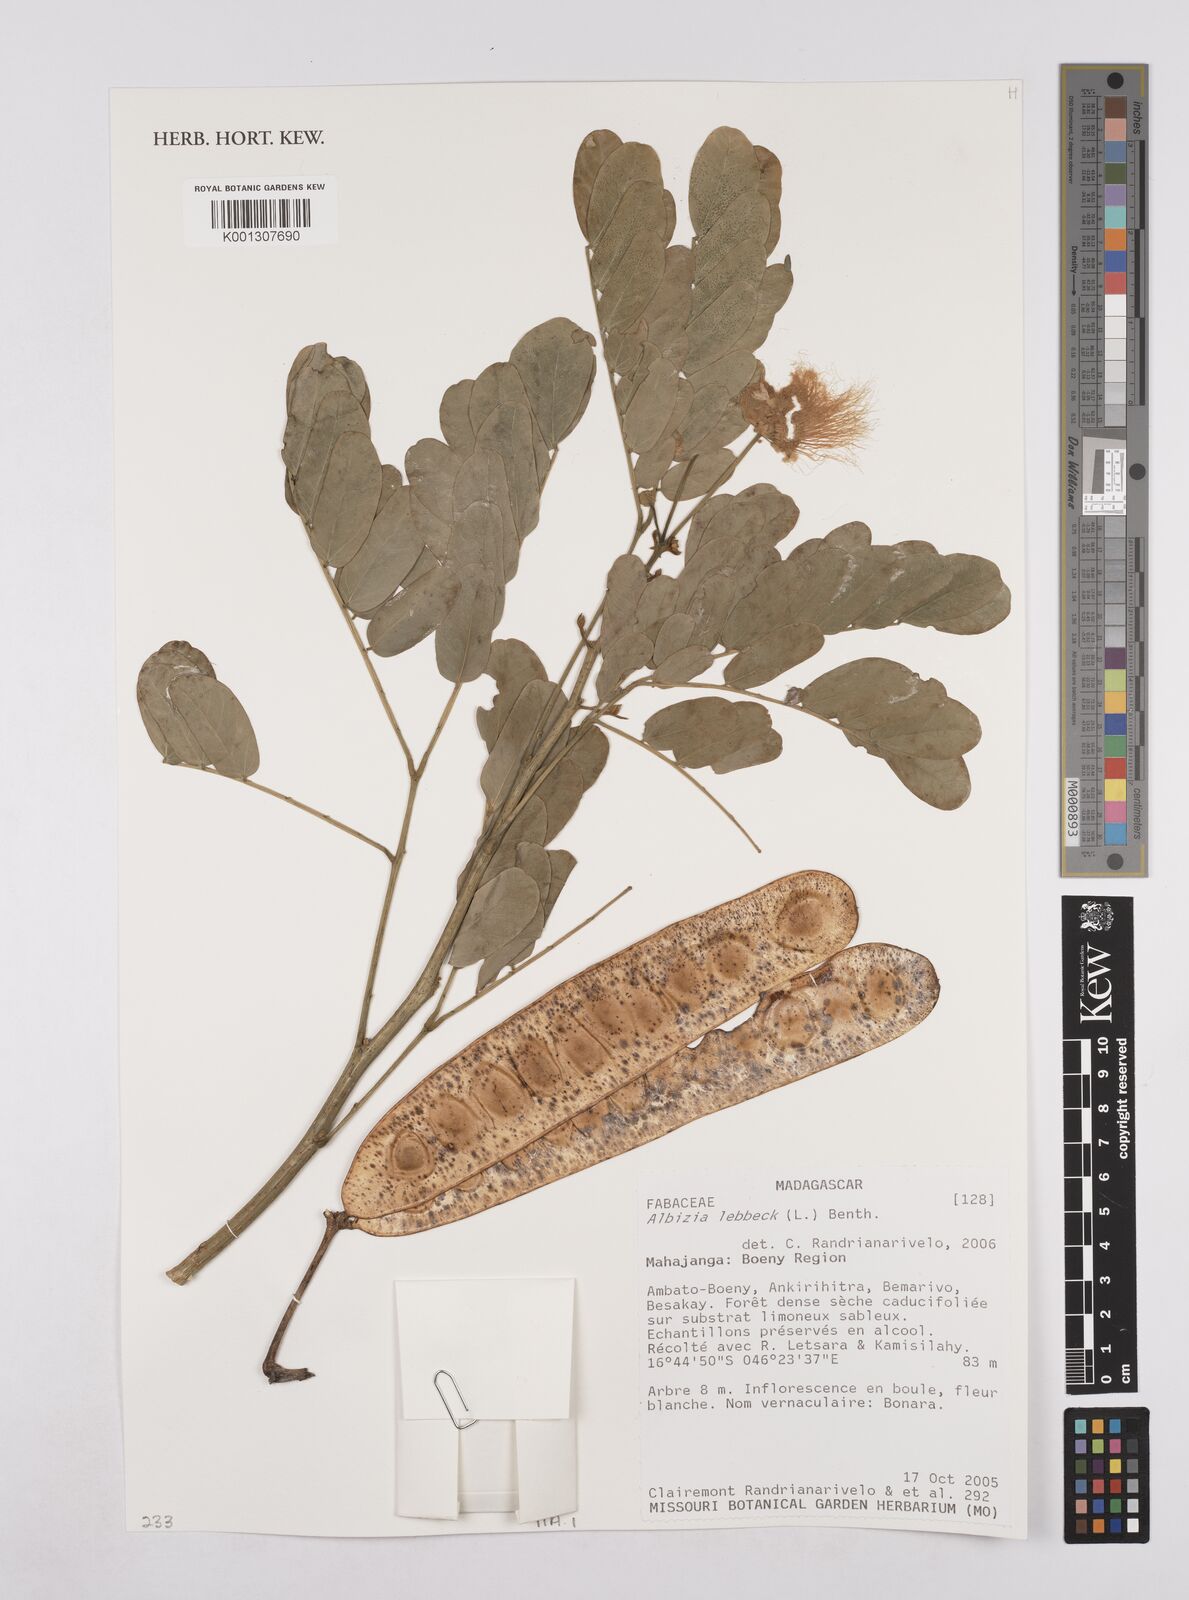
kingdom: Plantae
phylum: Tracheophyta
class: Magnoliopsida
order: Fabales
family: Fabaceae
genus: Albizia
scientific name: Albizia lebbeck
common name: Woman's tongue
